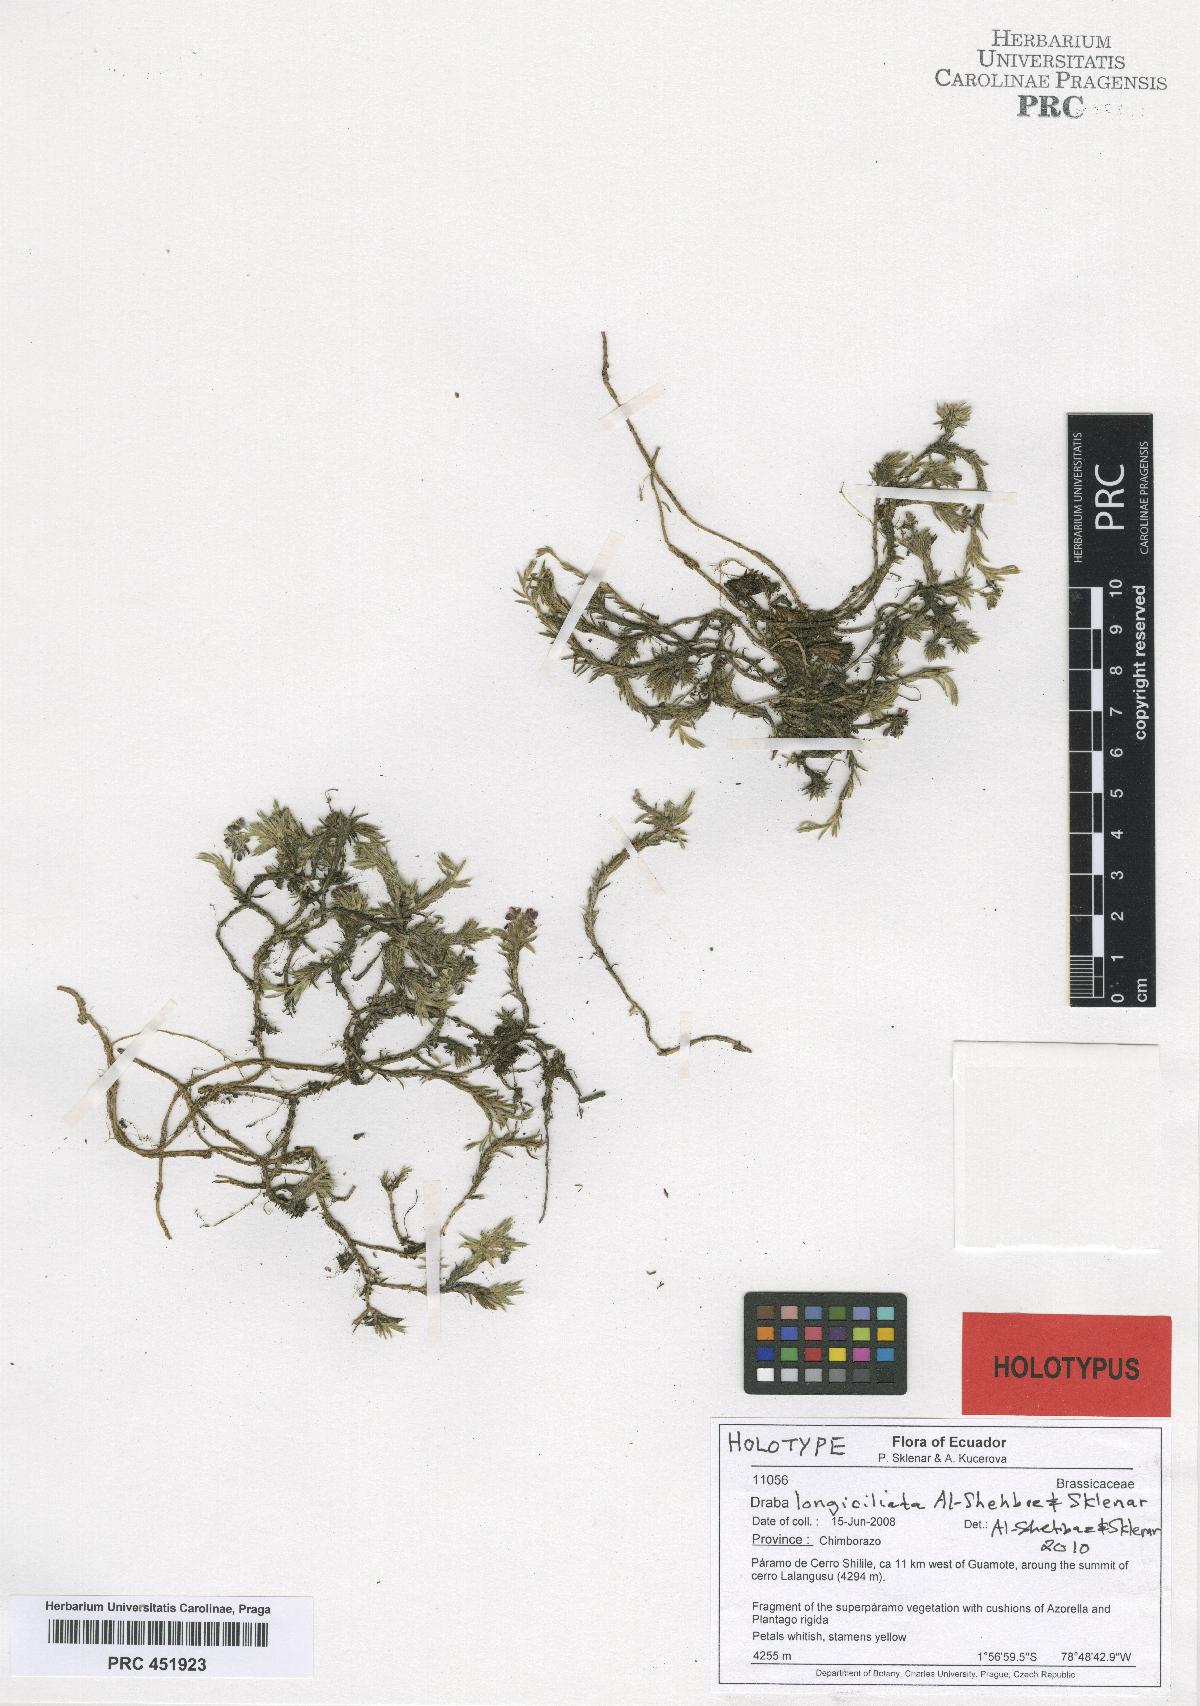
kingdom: Plantae
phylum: Tracheophyta
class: Magnoliopsida
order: Brassicales
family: Brassicaceae
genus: Draba
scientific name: Draba longiciliata
